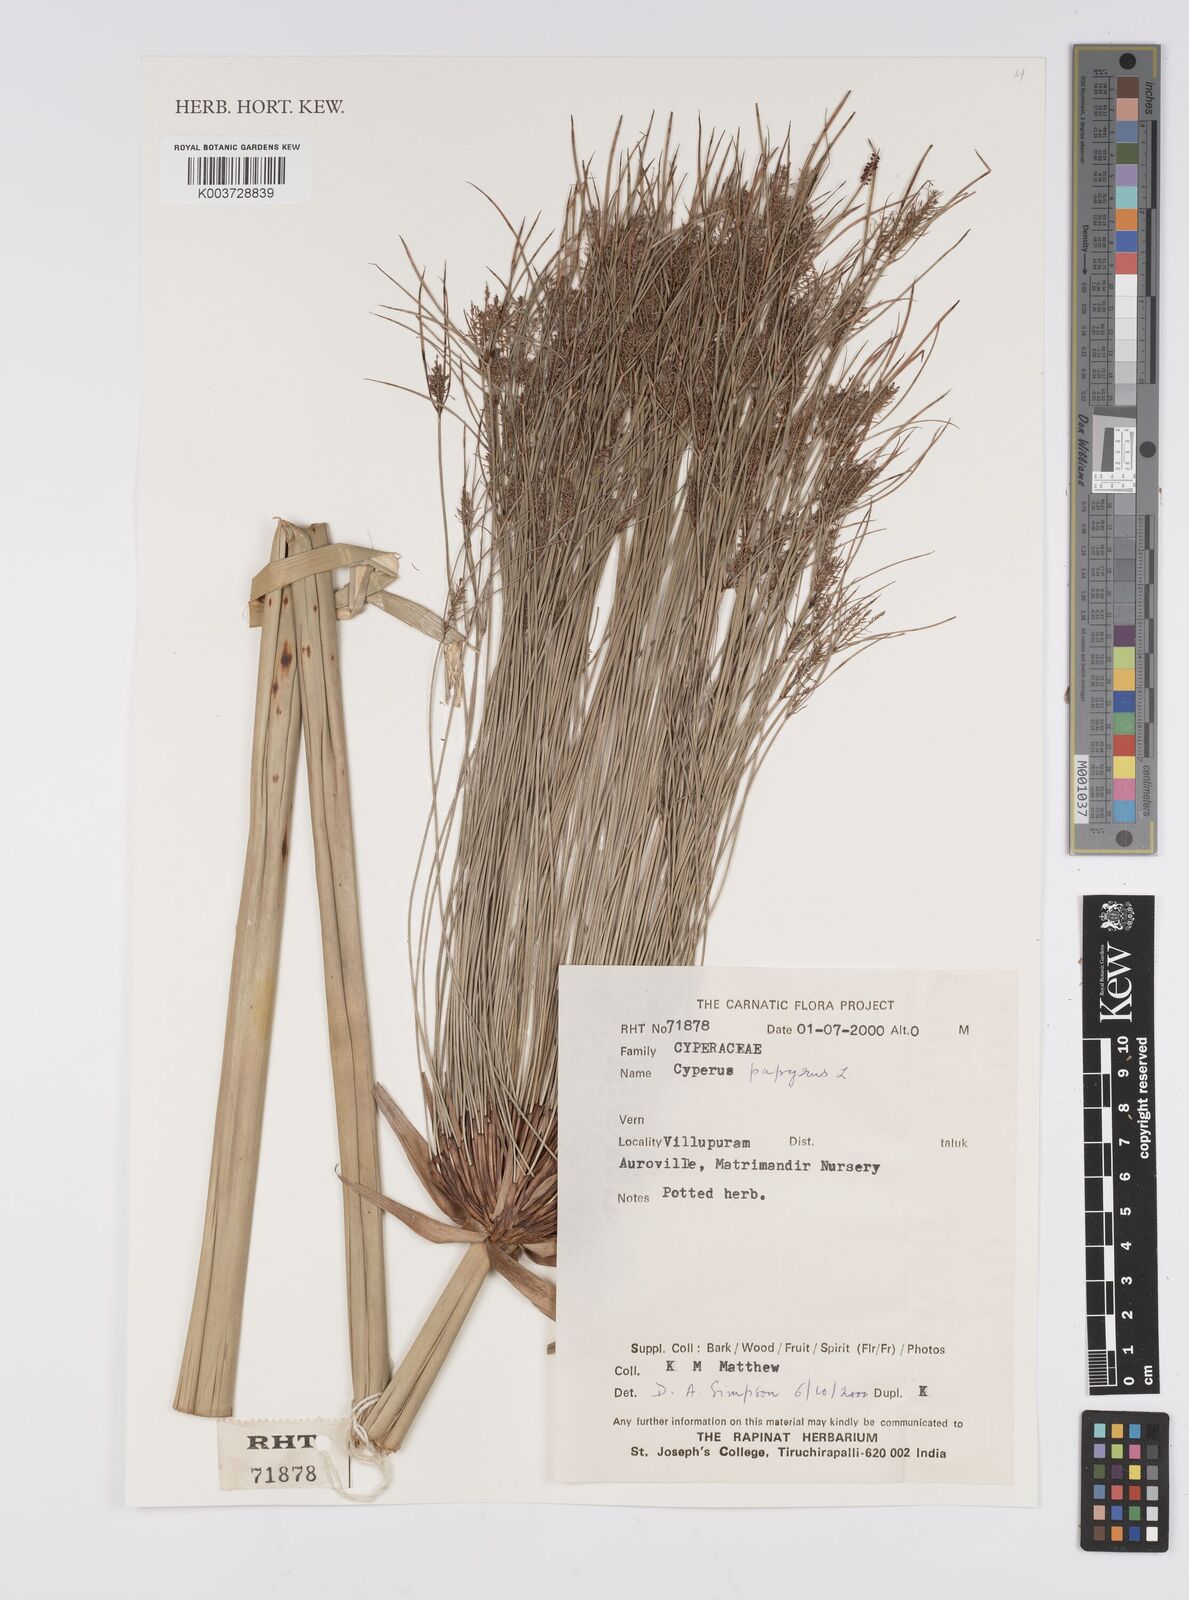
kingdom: Plantae
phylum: Tracheophyta
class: Liliopsida
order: Poales
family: Cyperaceae
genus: Cyperus
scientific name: Cyperus papyrus
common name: Papyrus
